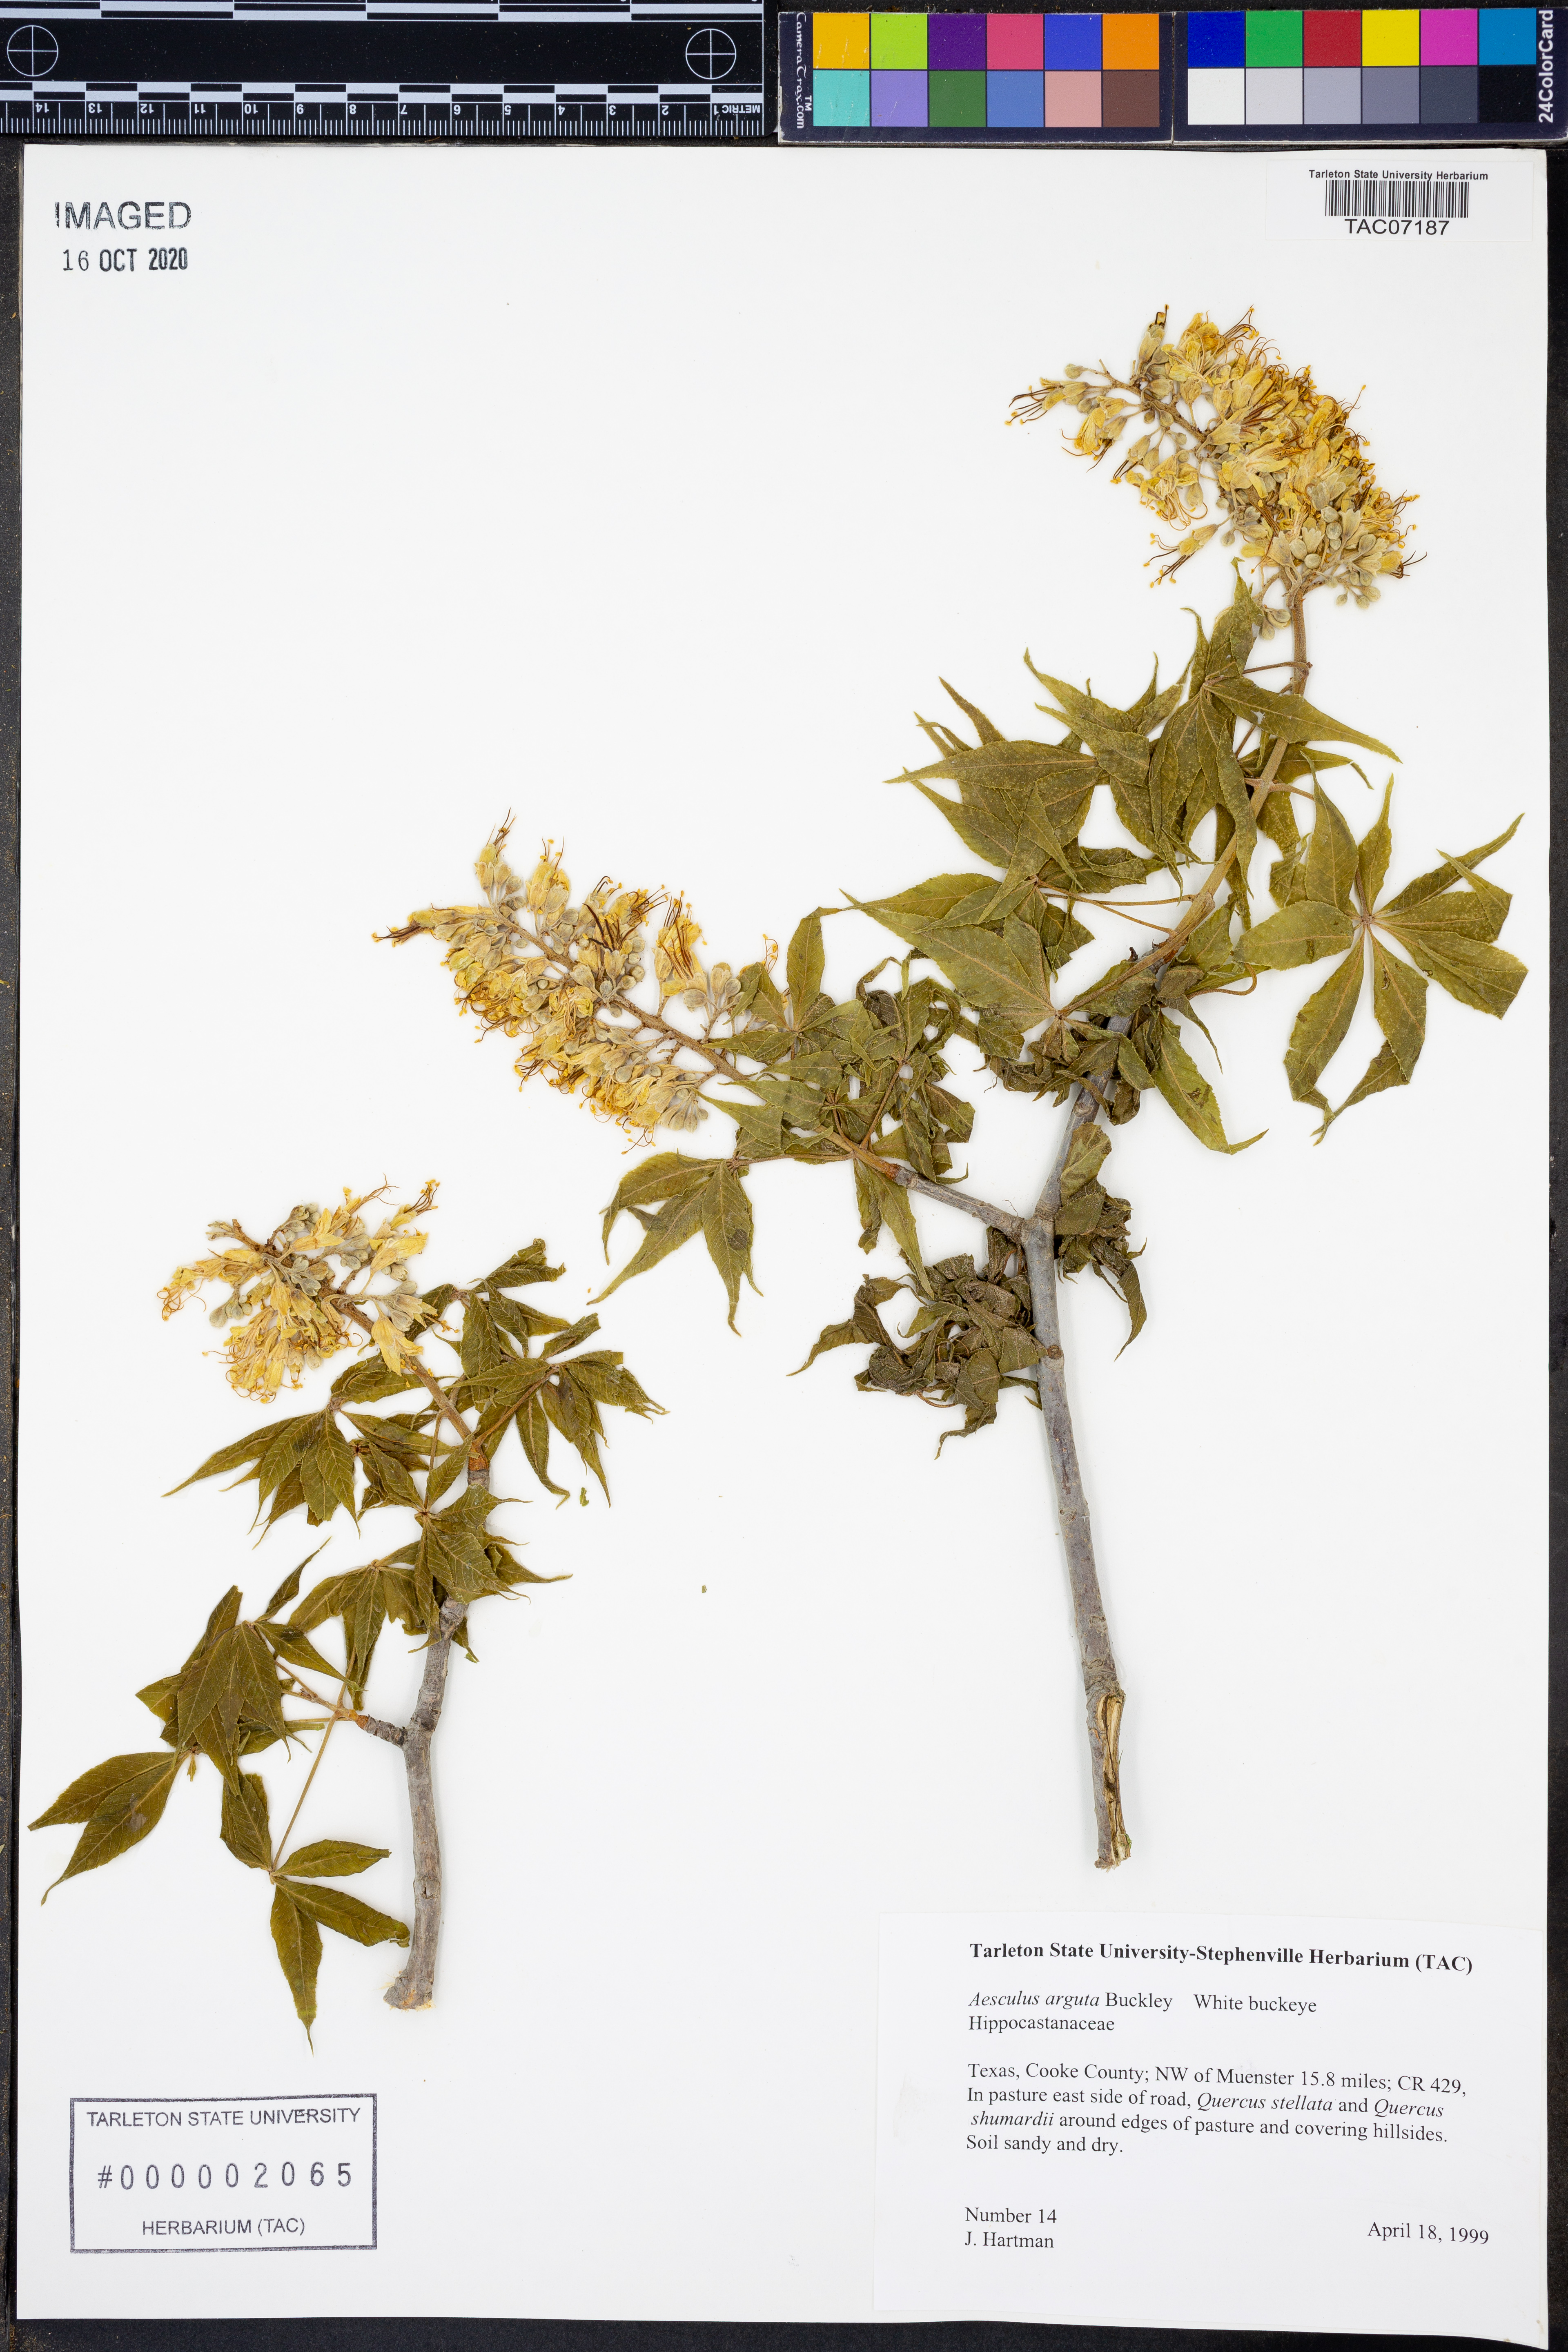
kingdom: Plantae
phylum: Tracheophyta
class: Magnoliopsida
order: Sapindales
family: Sapindaceae
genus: Aesculus
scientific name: Aesculus glabra
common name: Ohio buckeye
